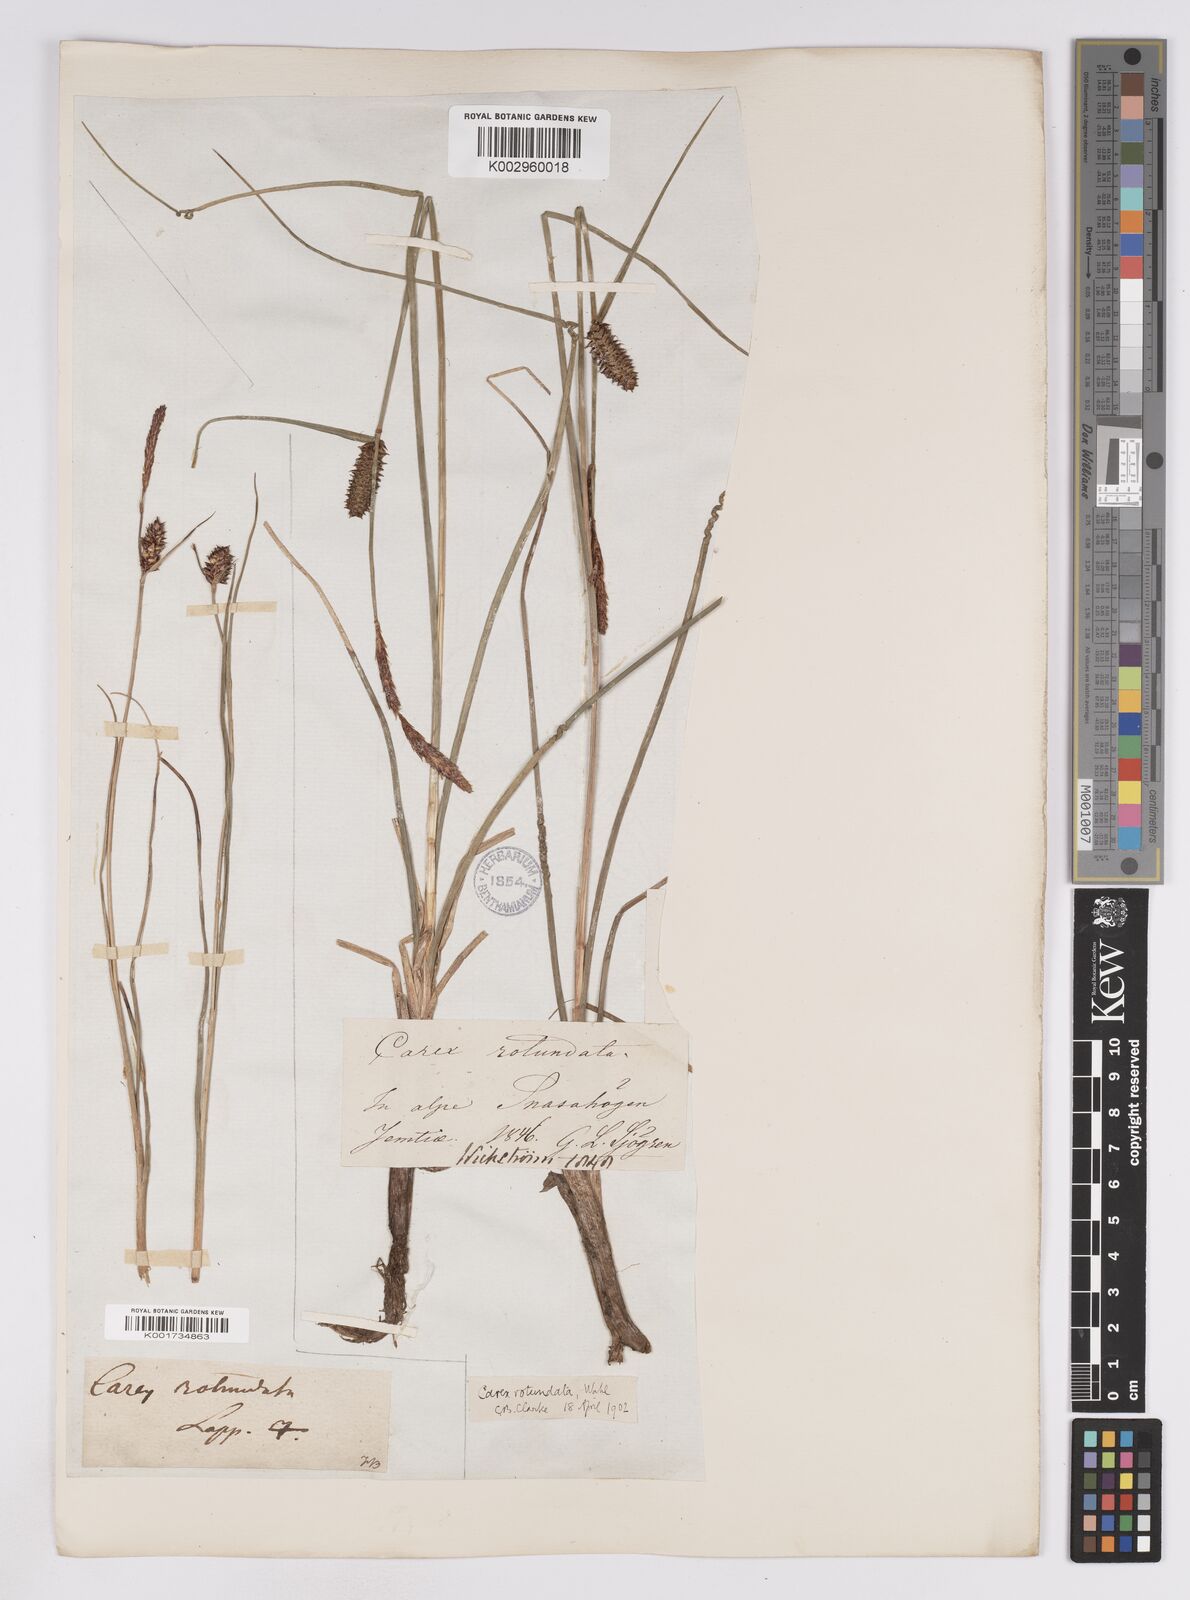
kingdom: Plantae
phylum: Tracheophyta
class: Liliopsida
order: Poales
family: Cyperaceae
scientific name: Cyperaceae
